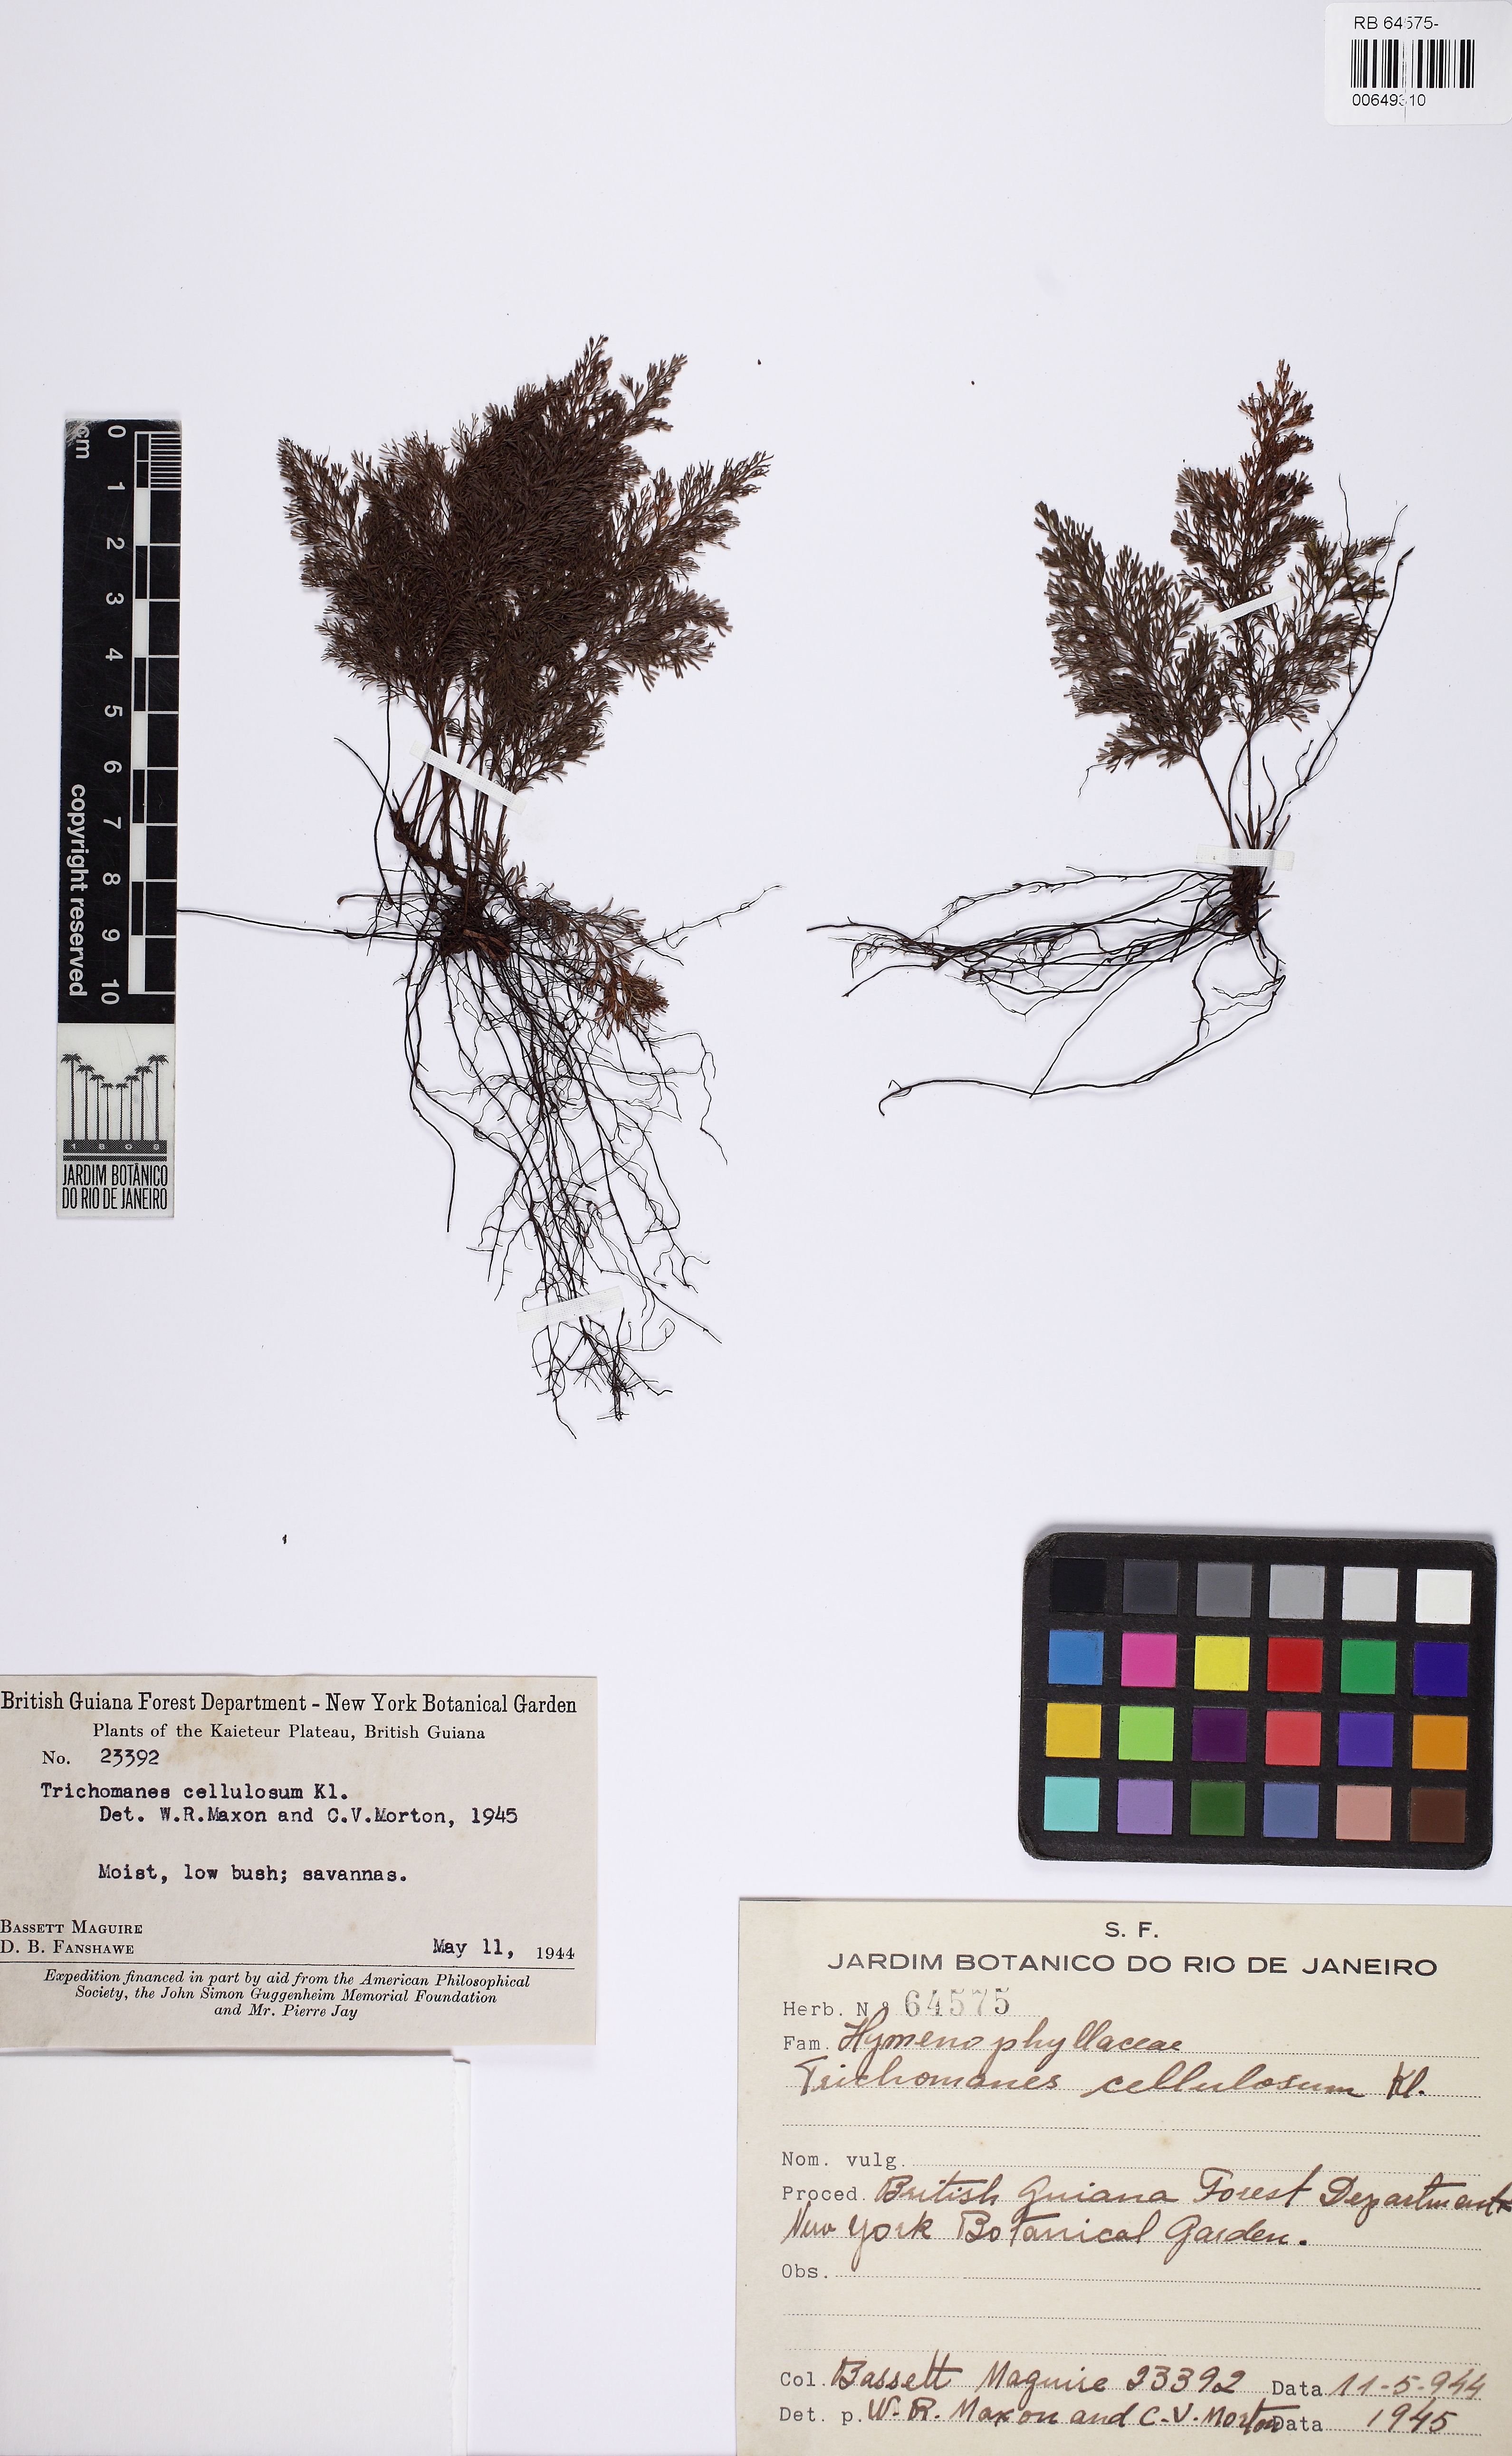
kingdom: Plantae
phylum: Tracheophyta
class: Polypodiopsida
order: Hymenophyllales
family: Hymenophyllaceae
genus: Abrodictyum
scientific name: Abrodictyum cellulosum
